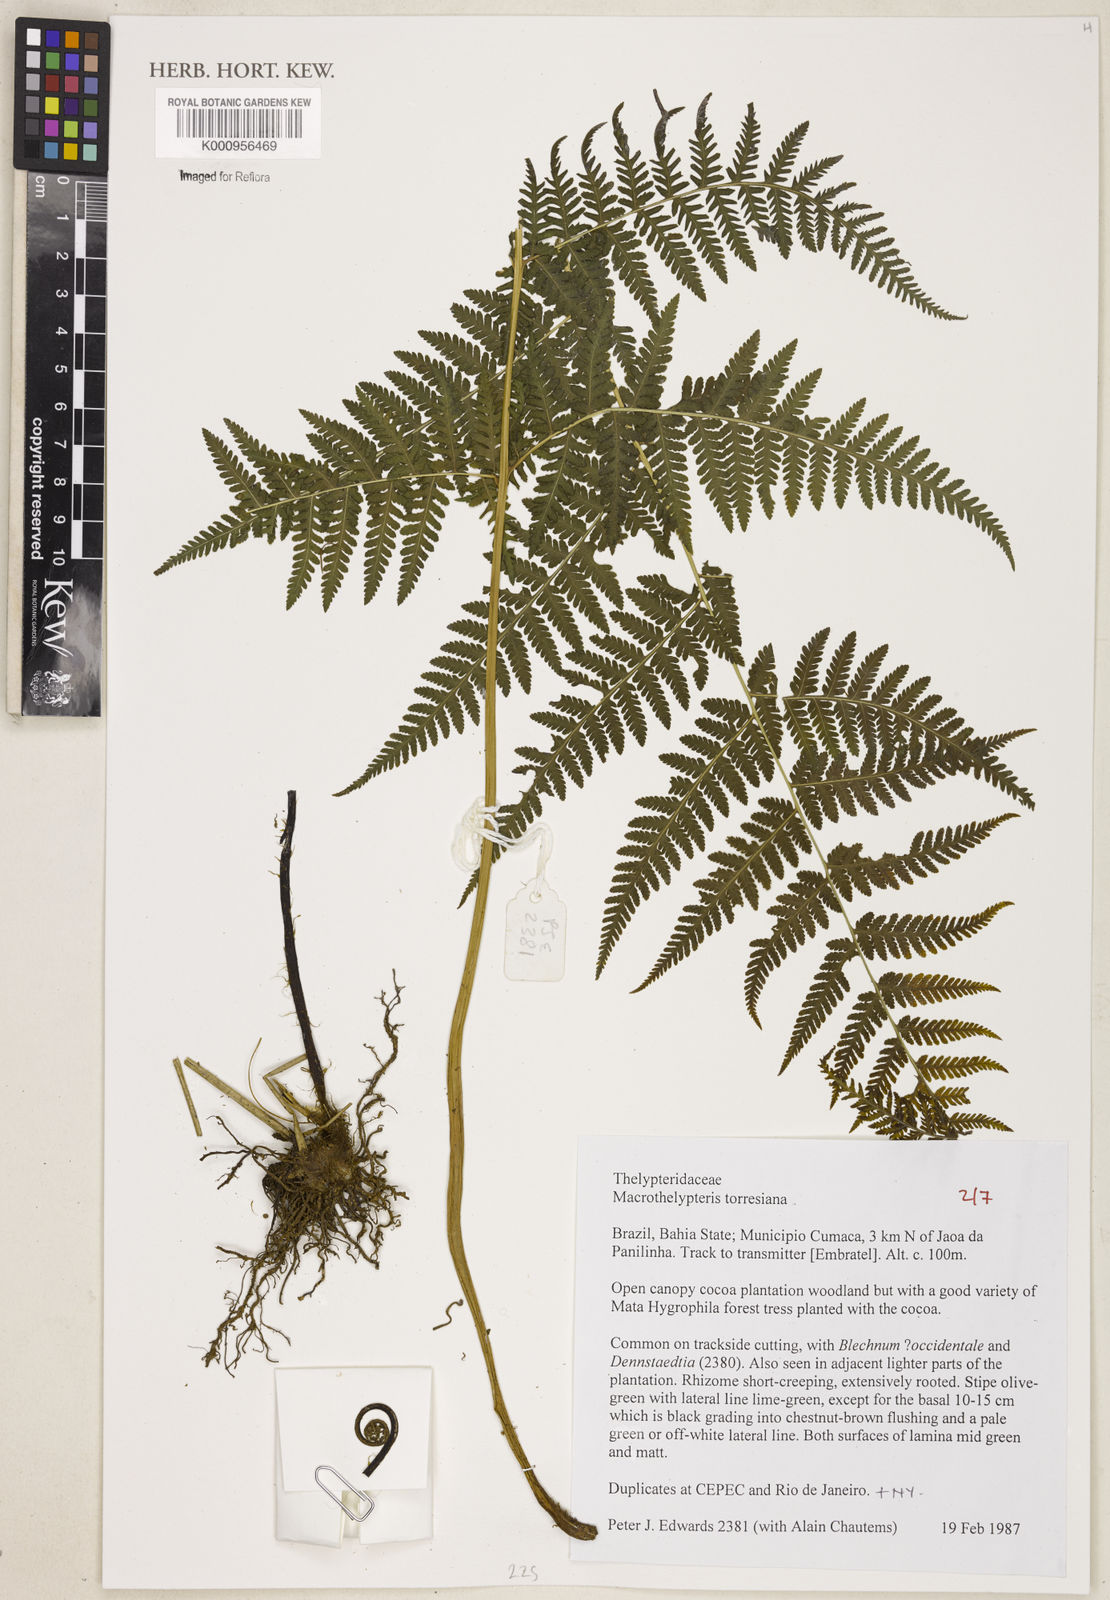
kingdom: Plantae
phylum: Tracheophyta
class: Polypodiopsida
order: Polypodiales
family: Thelypteridaceae
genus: Macrothelypteris
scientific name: Macrothelypteris torresiana
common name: Swordfern
